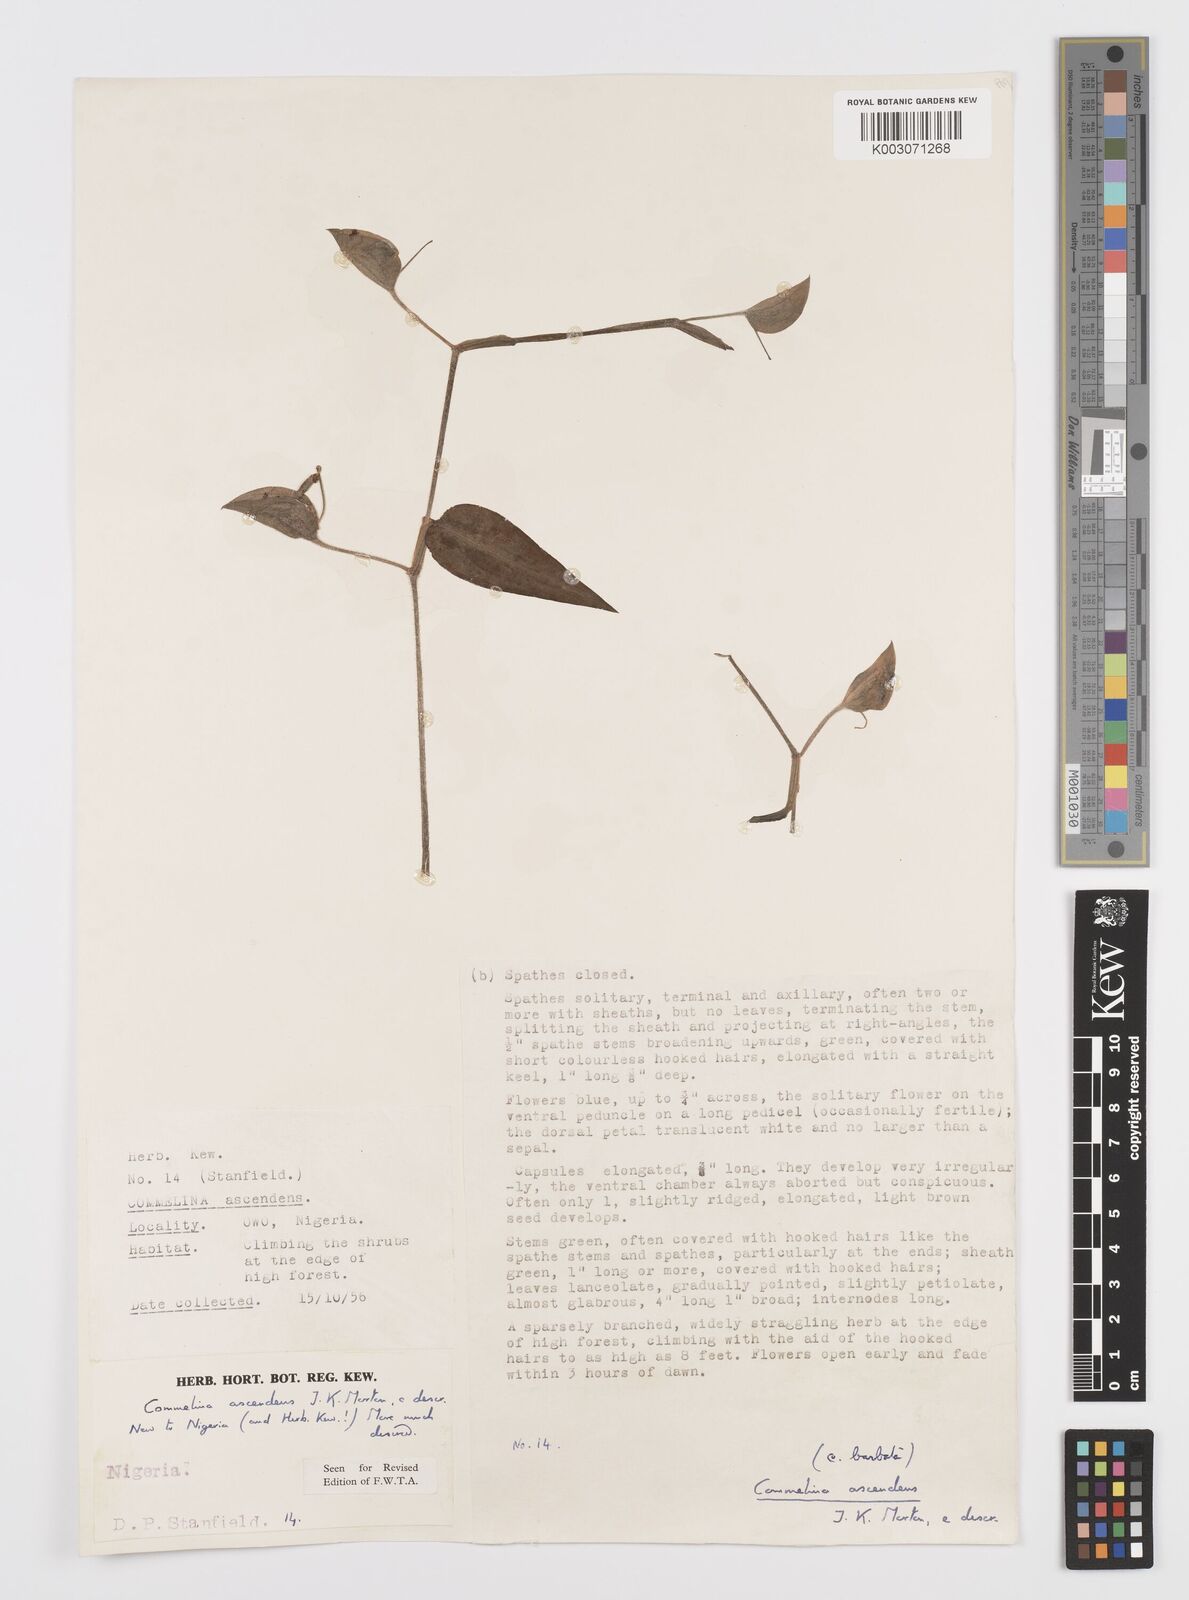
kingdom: Plantae
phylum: Tracheophyta
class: Liliopsida
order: Commelinales
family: Commelinaceae
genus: Commelina
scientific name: Commelina ascendens
